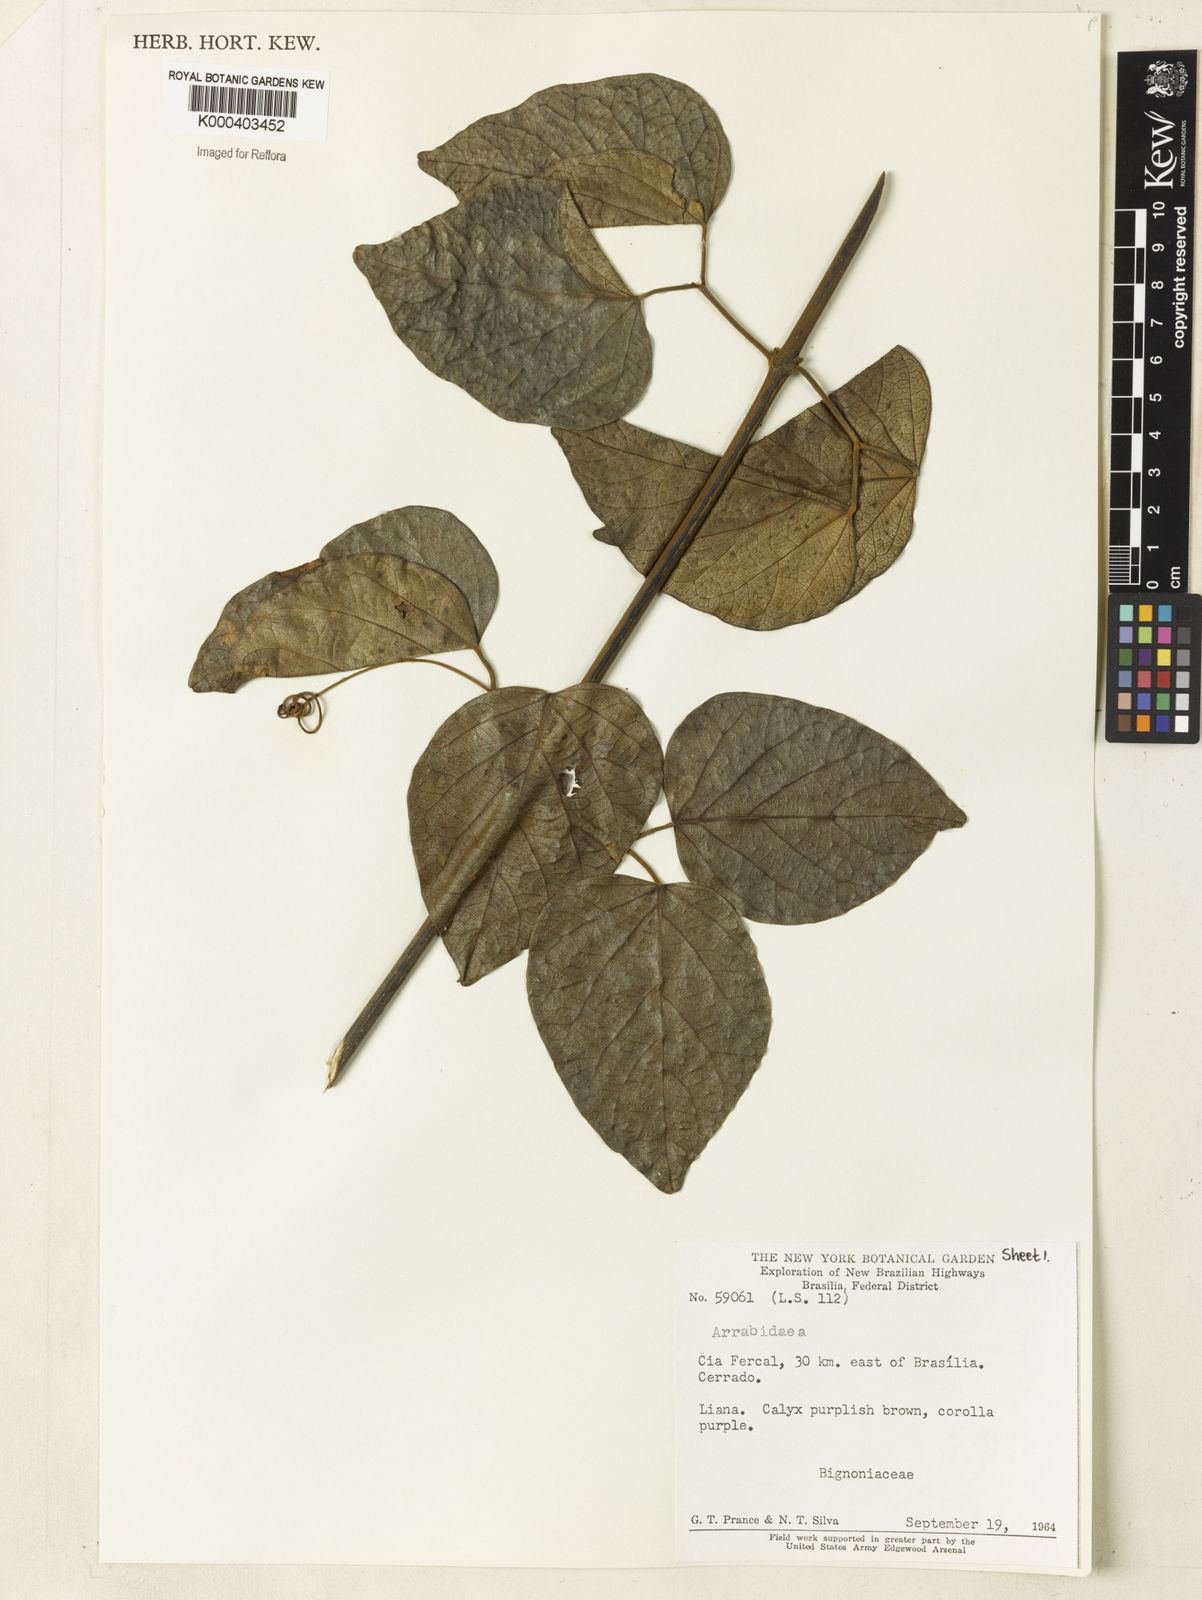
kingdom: Plantae
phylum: Tracheophyta
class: Magnoliopsida
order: Rosales
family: Rhamnaceae
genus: Arrabidaea
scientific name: Arrabidaea
